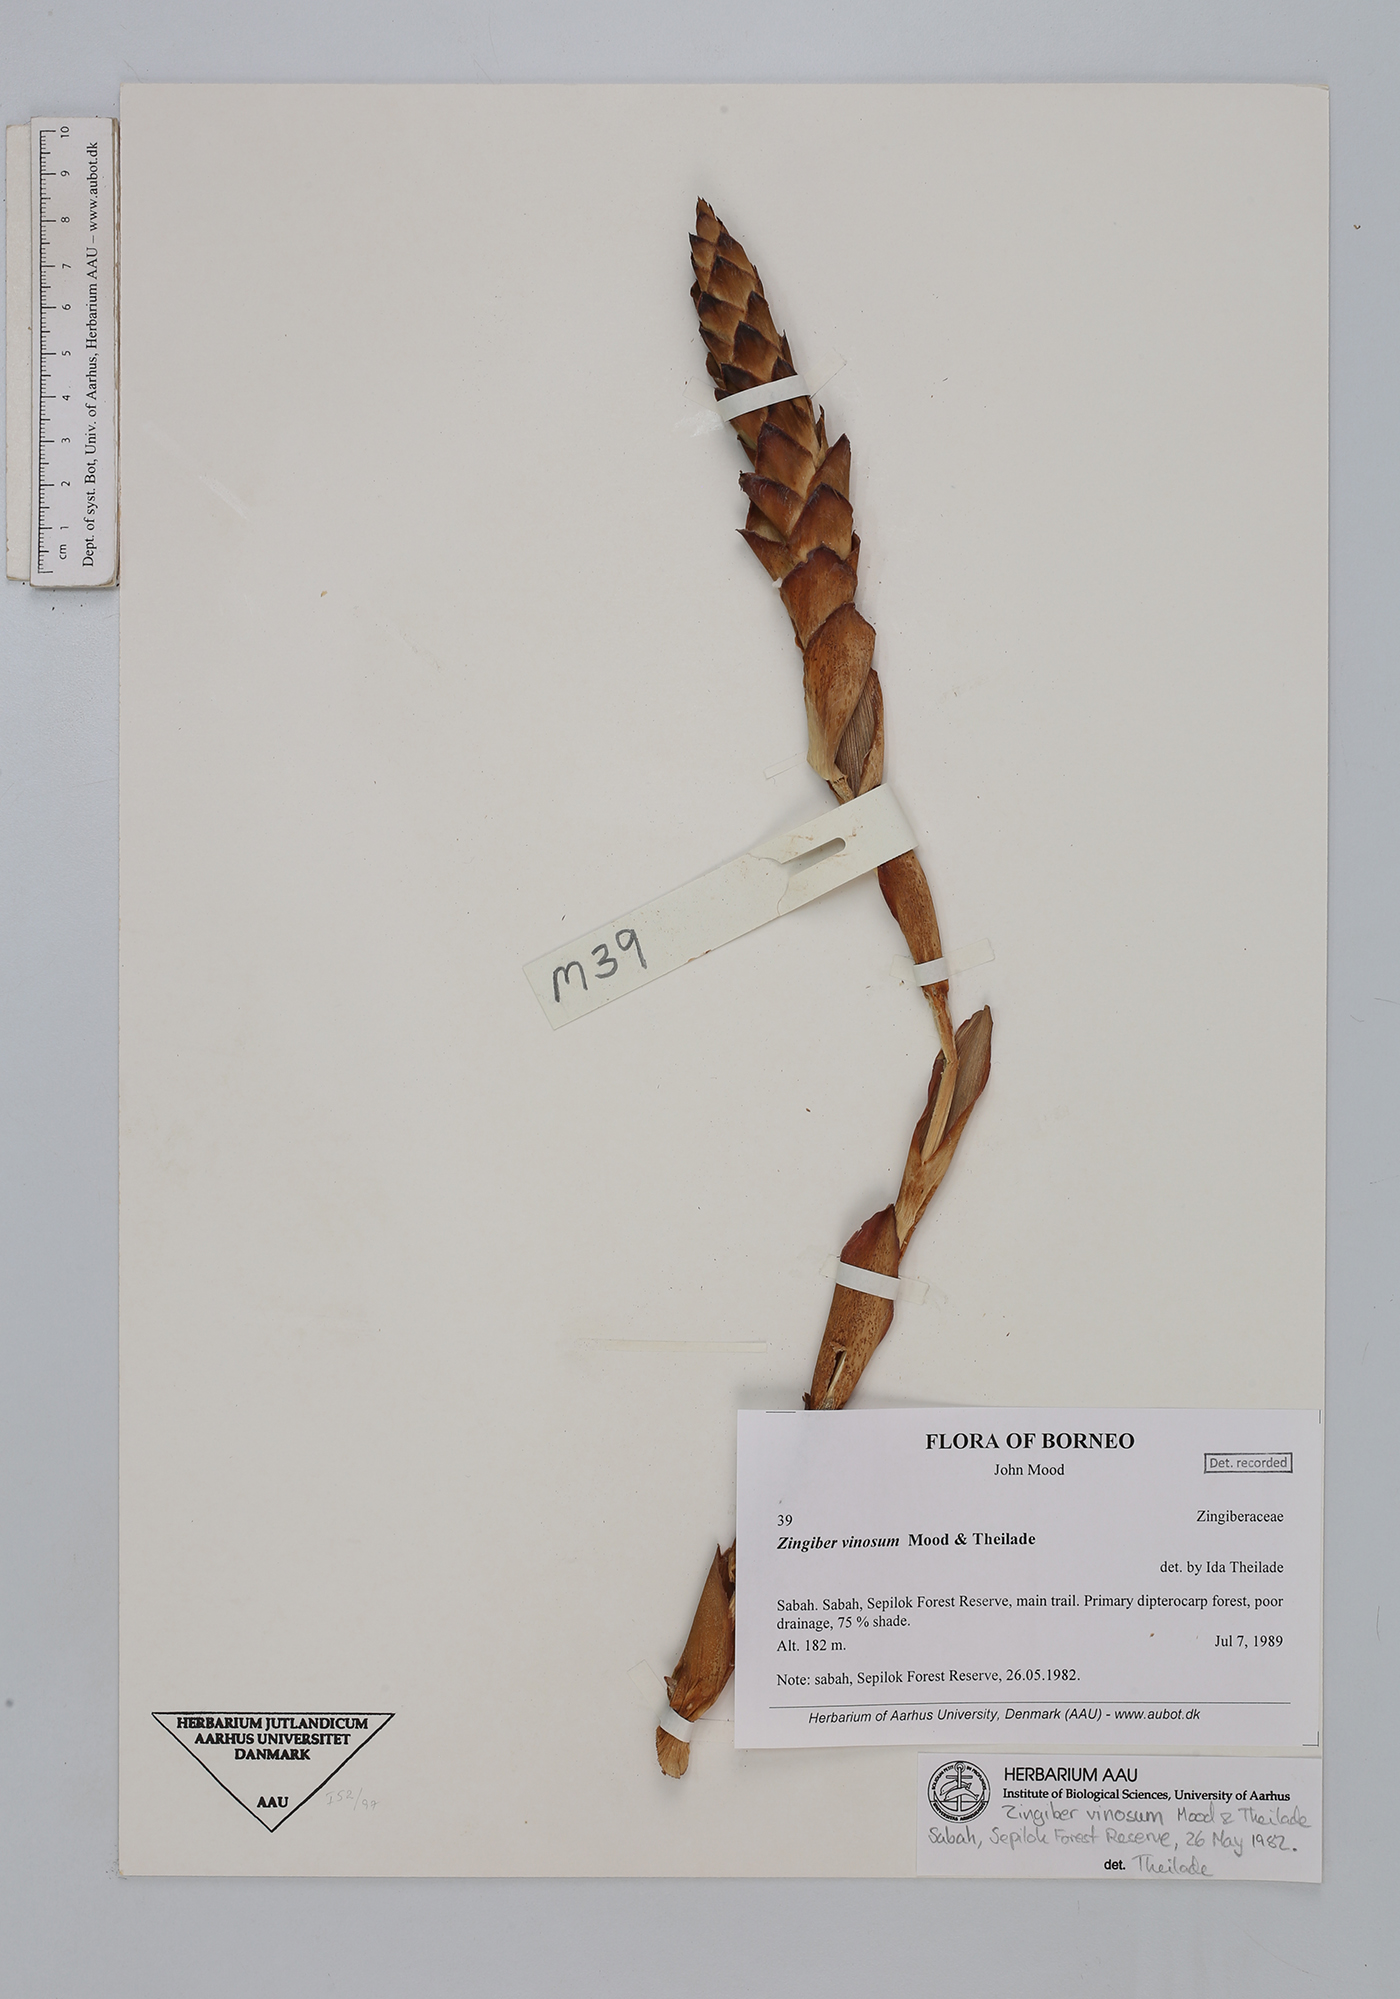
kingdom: Plantae
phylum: Tracheophyta
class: Liliopsida
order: Zingiberales
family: Zingiberaceae
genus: Zingiber
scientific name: Zingiber vinosum
